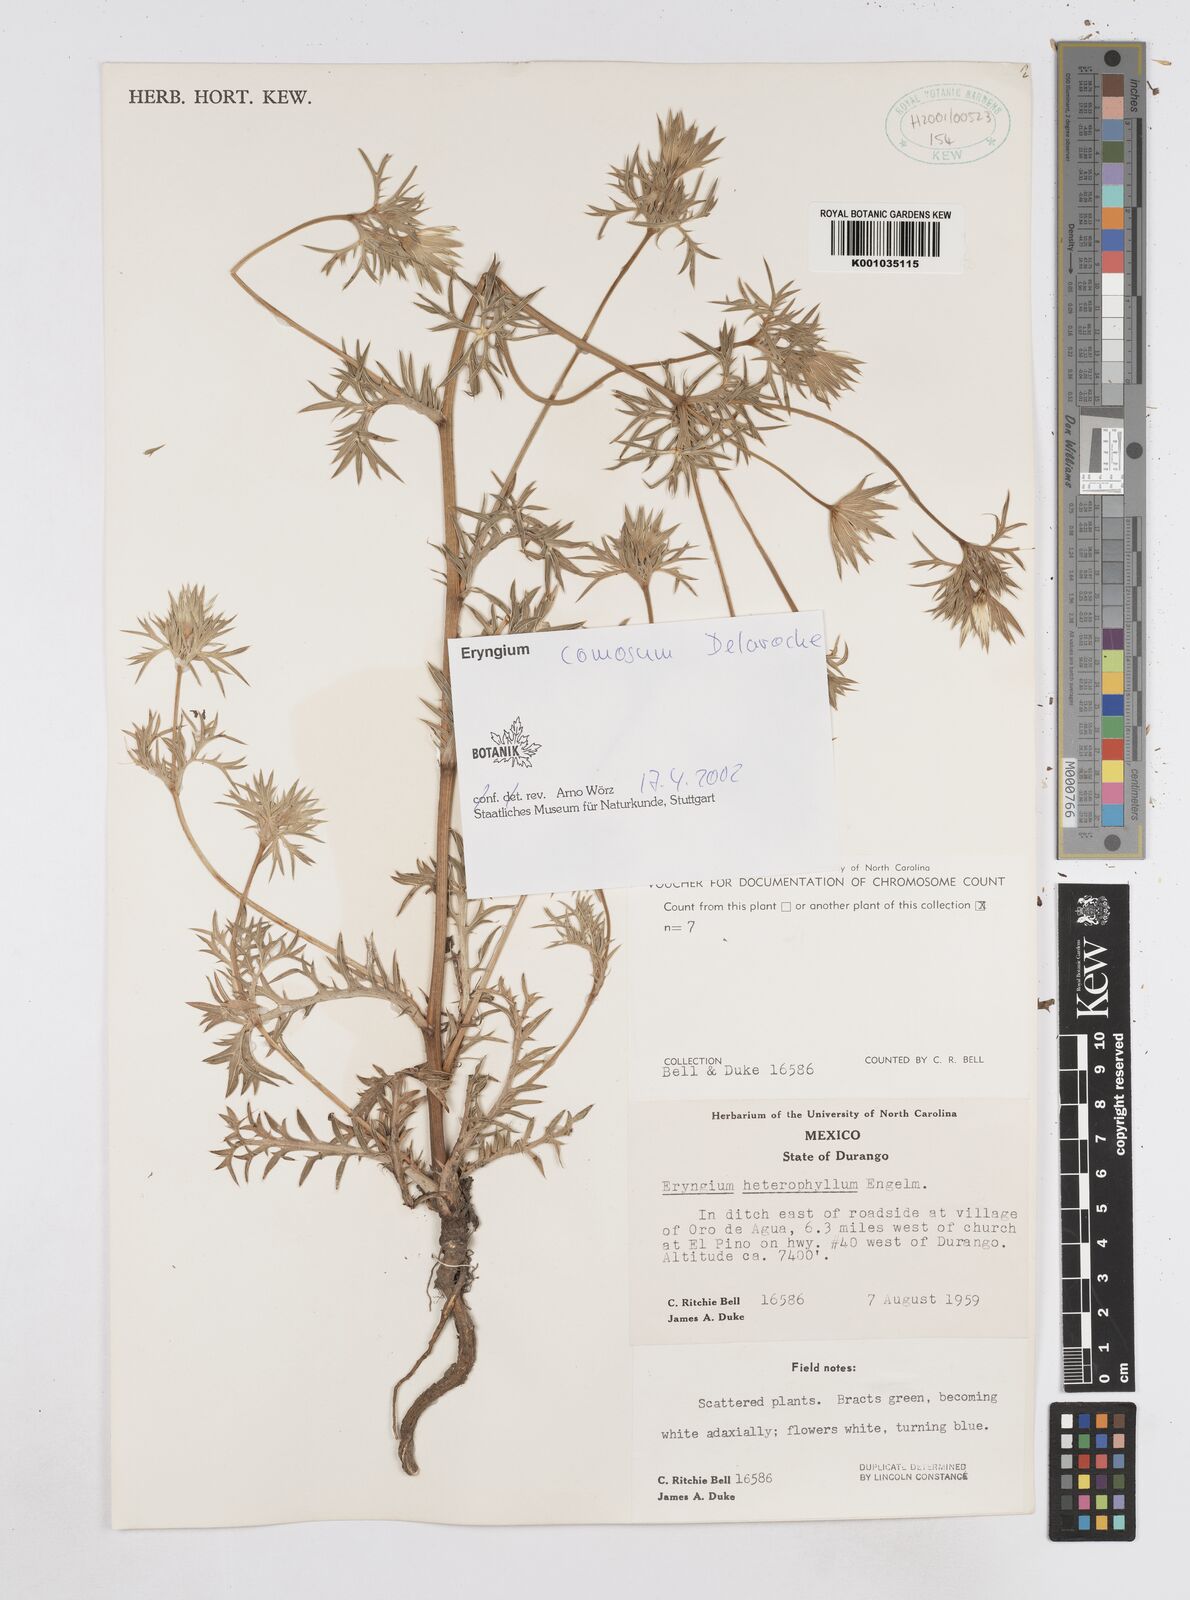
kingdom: Plantae
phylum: Tracheophyta
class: Magnoliopsida
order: Apiales
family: Apiaceae
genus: Eryngium
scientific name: Eryngium comosum
